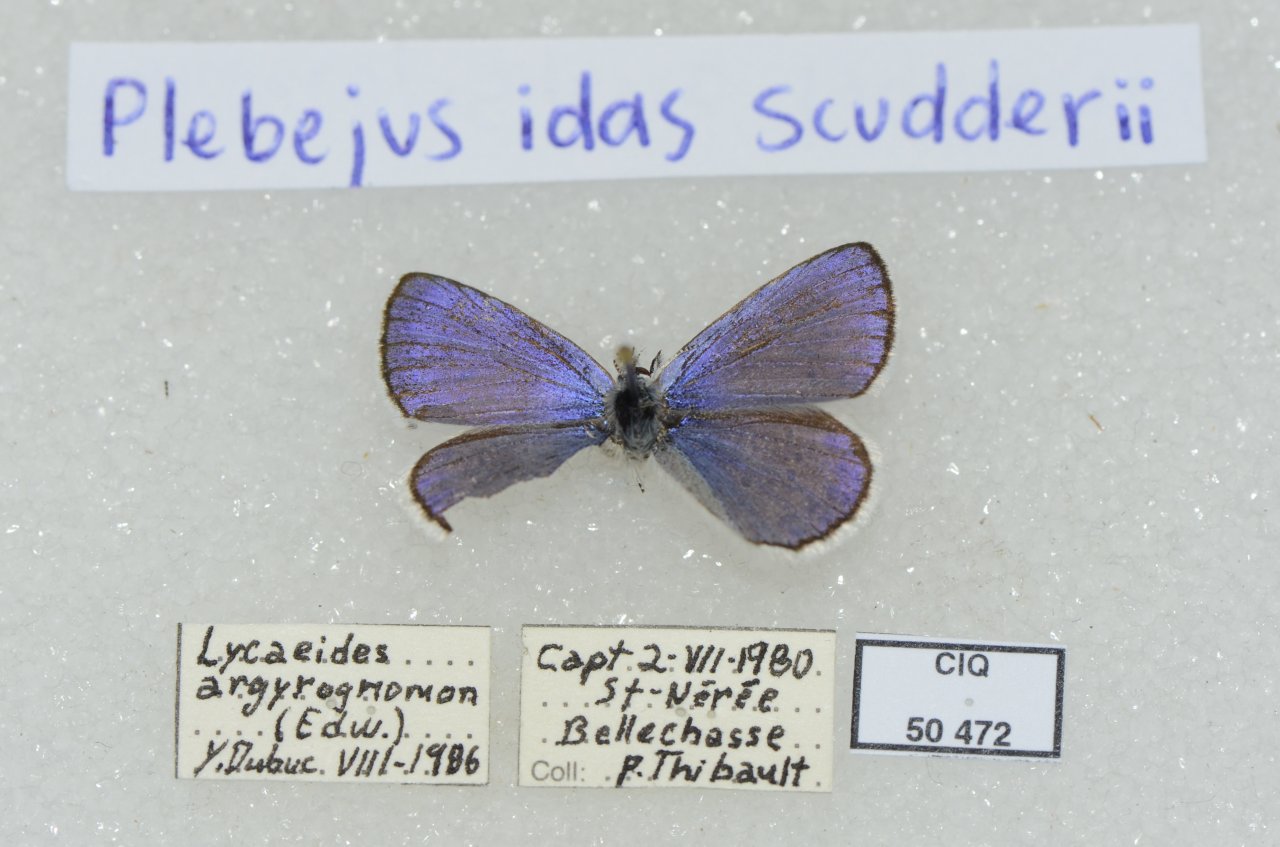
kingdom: Animalia
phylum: Arthropoda
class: Insecta
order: Lepidoptera
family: Lycaenidae
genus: Lycaeides
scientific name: Lycaeides idas
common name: Northern Blue
